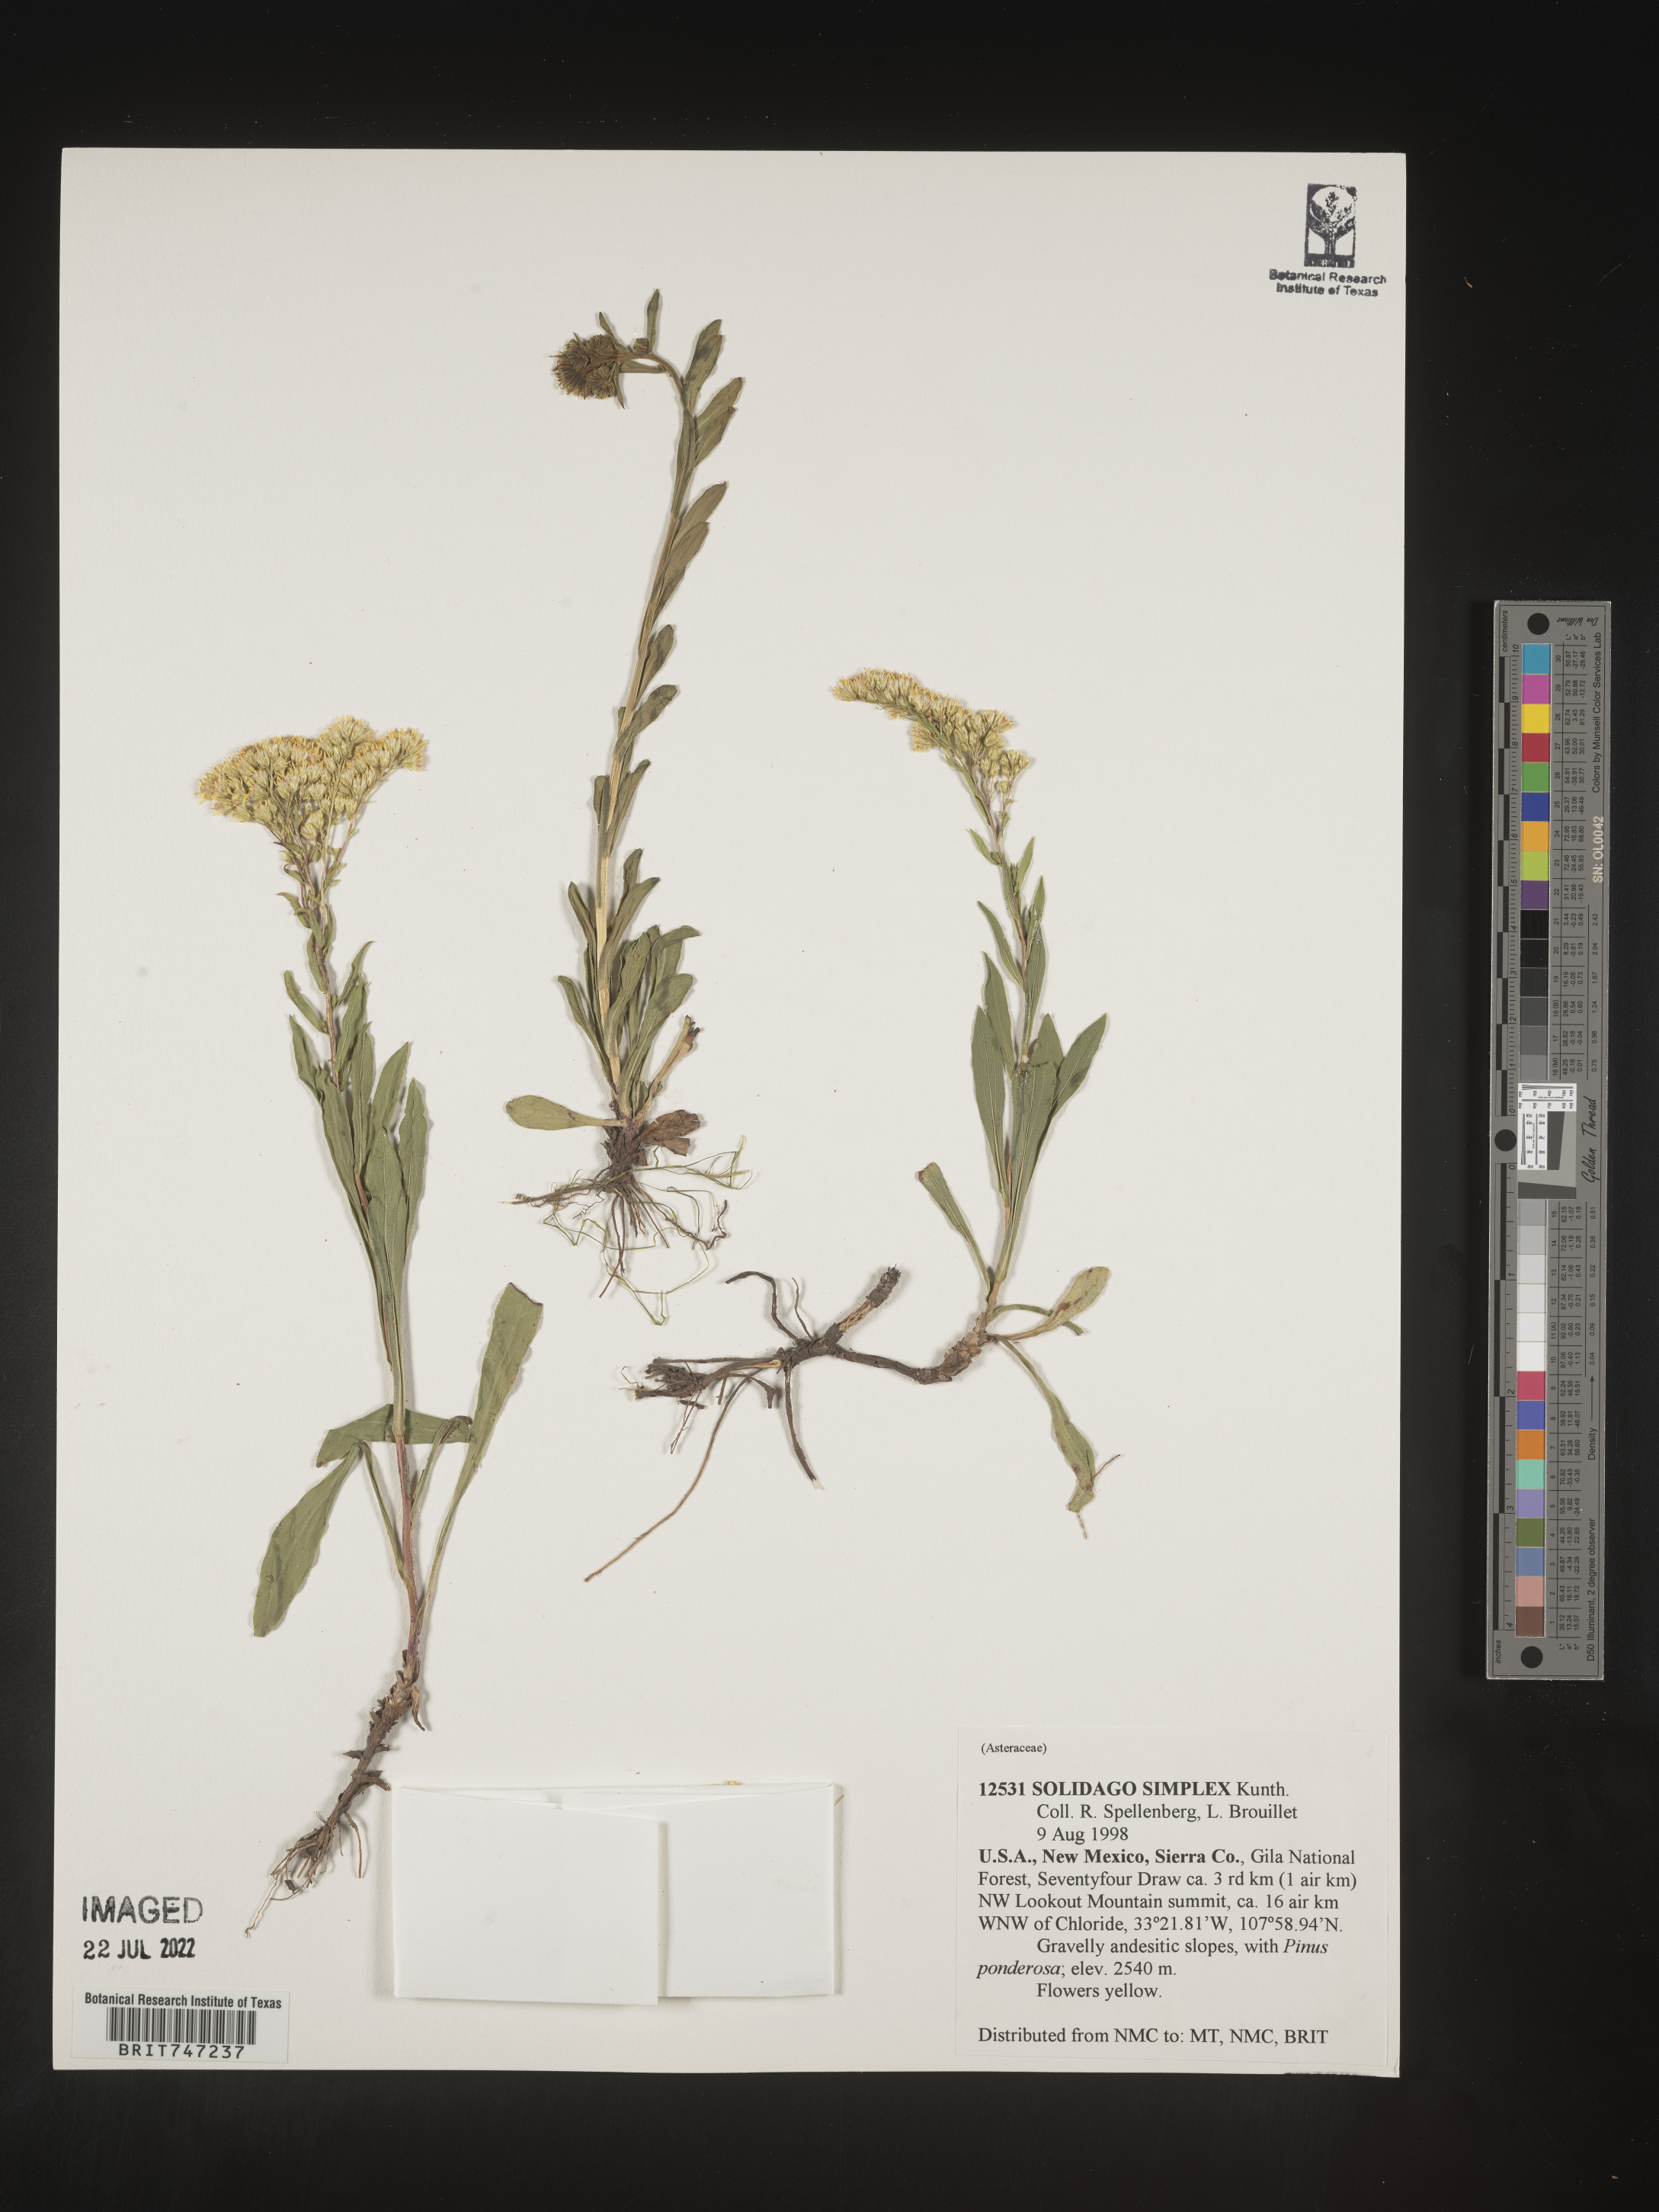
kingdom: Plantae
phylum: Tracheophyta
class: Magnoliopsida
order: Asterales
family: Asteraceae
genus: Solidago
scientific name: Solidago missouriensis
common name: Prairie goldenrod
